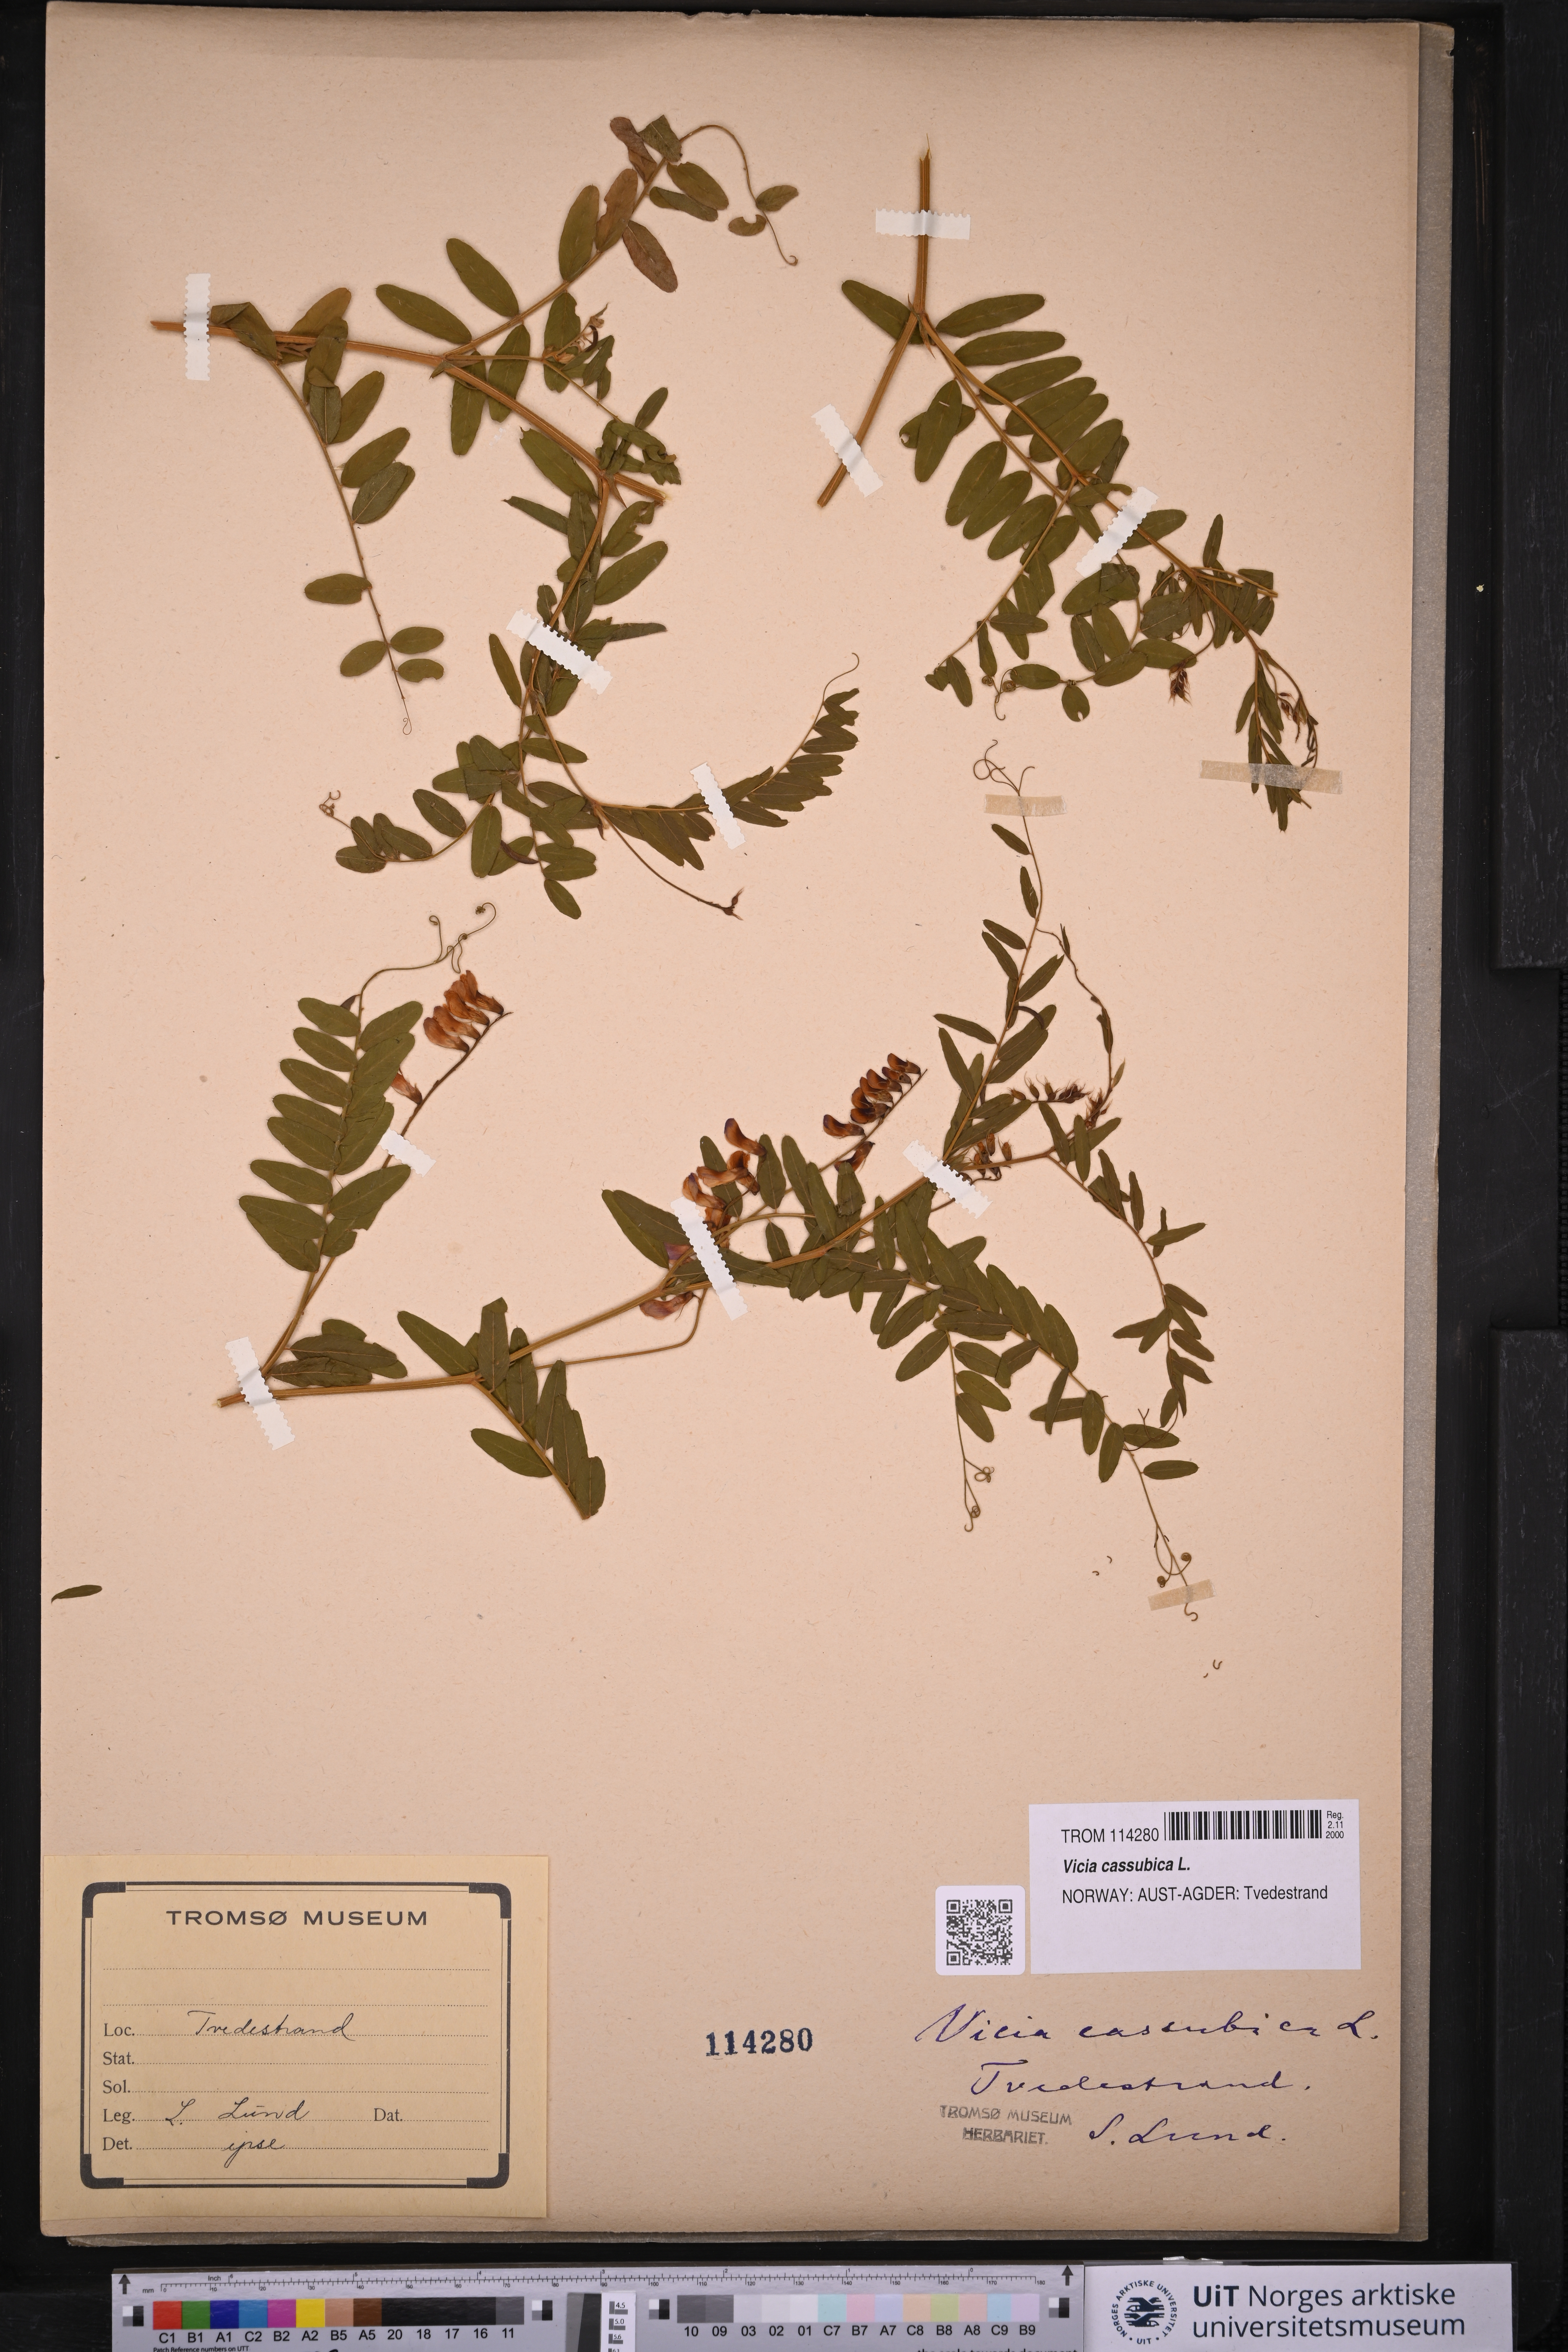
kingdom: Plantae
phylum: Tracheophyta
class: Magnoliopsida
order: Fabales
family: Fabaceae
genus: Vicia
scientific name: Vicia cassubica
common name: Danzig vetch
